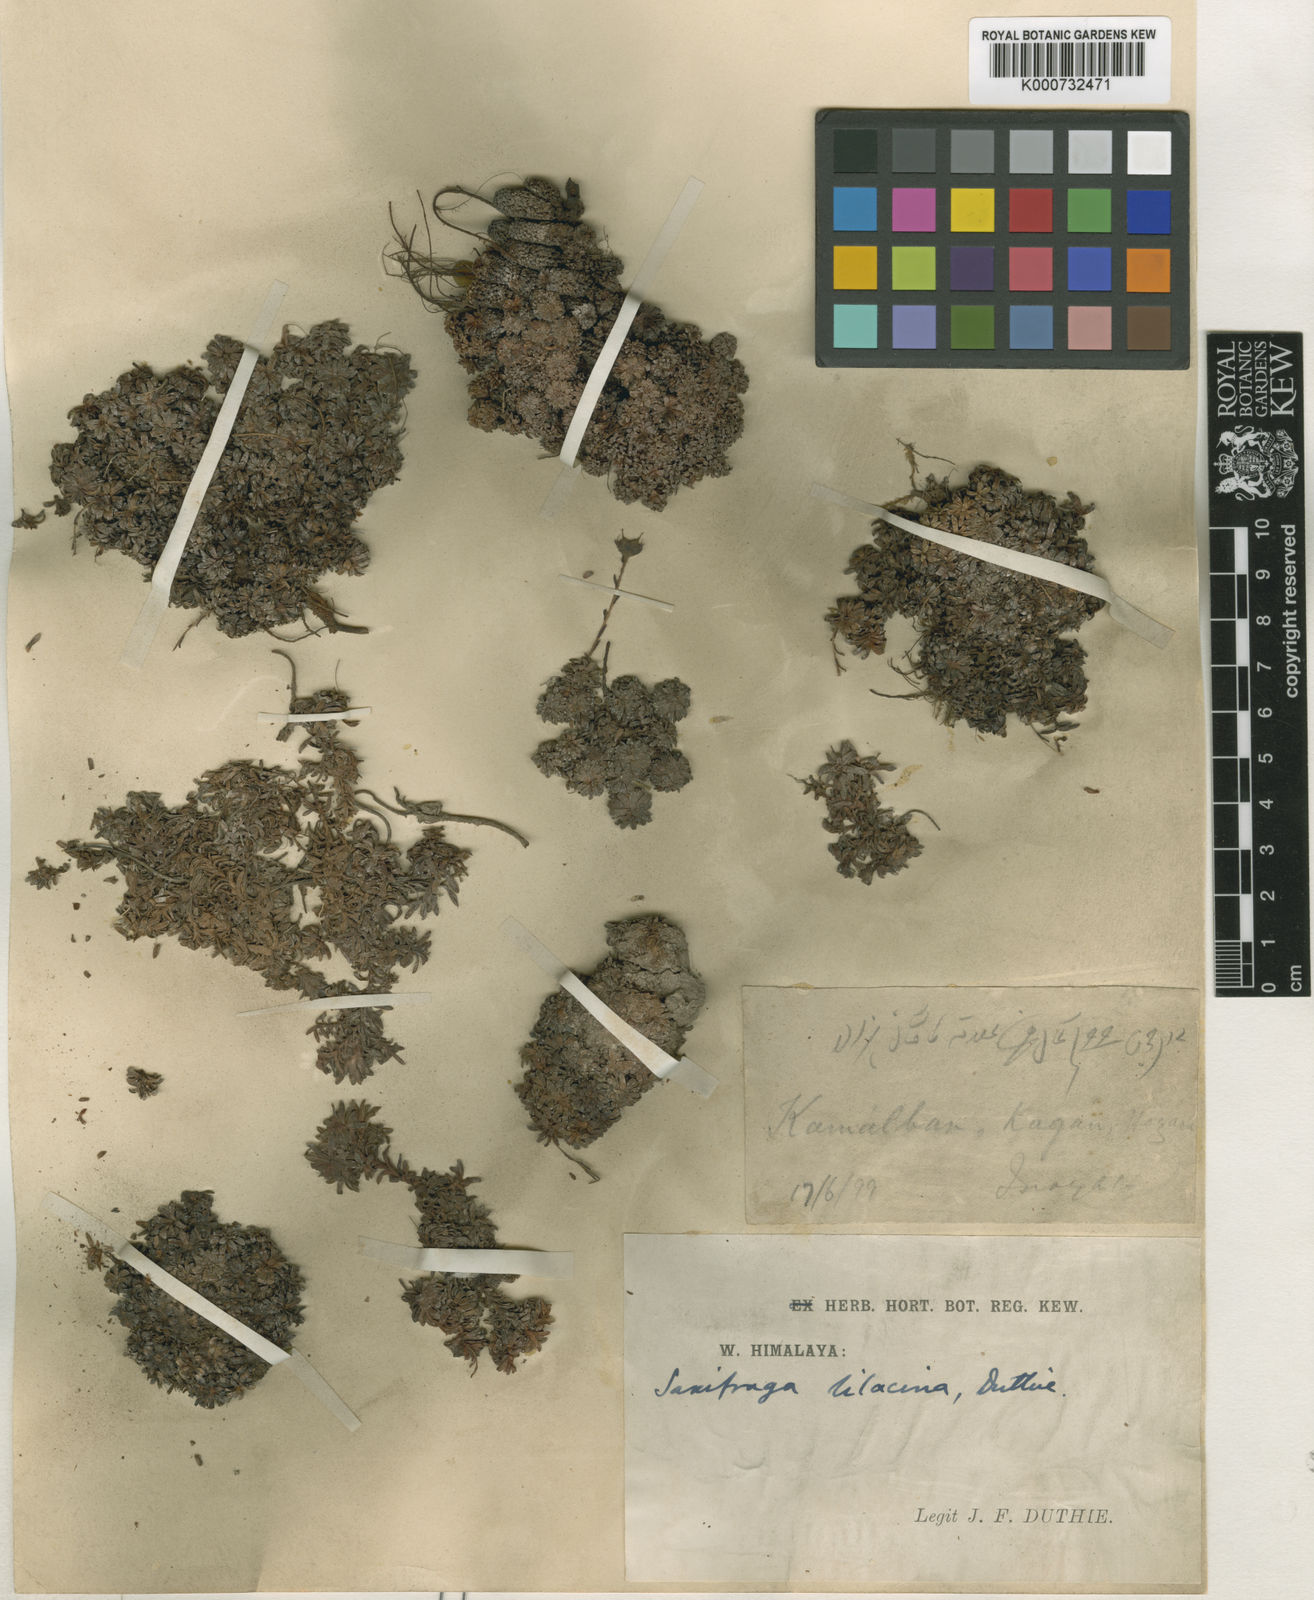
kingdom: Plantae
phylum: Tracheophyta
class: Magnoliopsida
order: Saxifragales
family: Saxifragaceae
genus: Saxifraga
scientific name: Saxifraga lilacina
